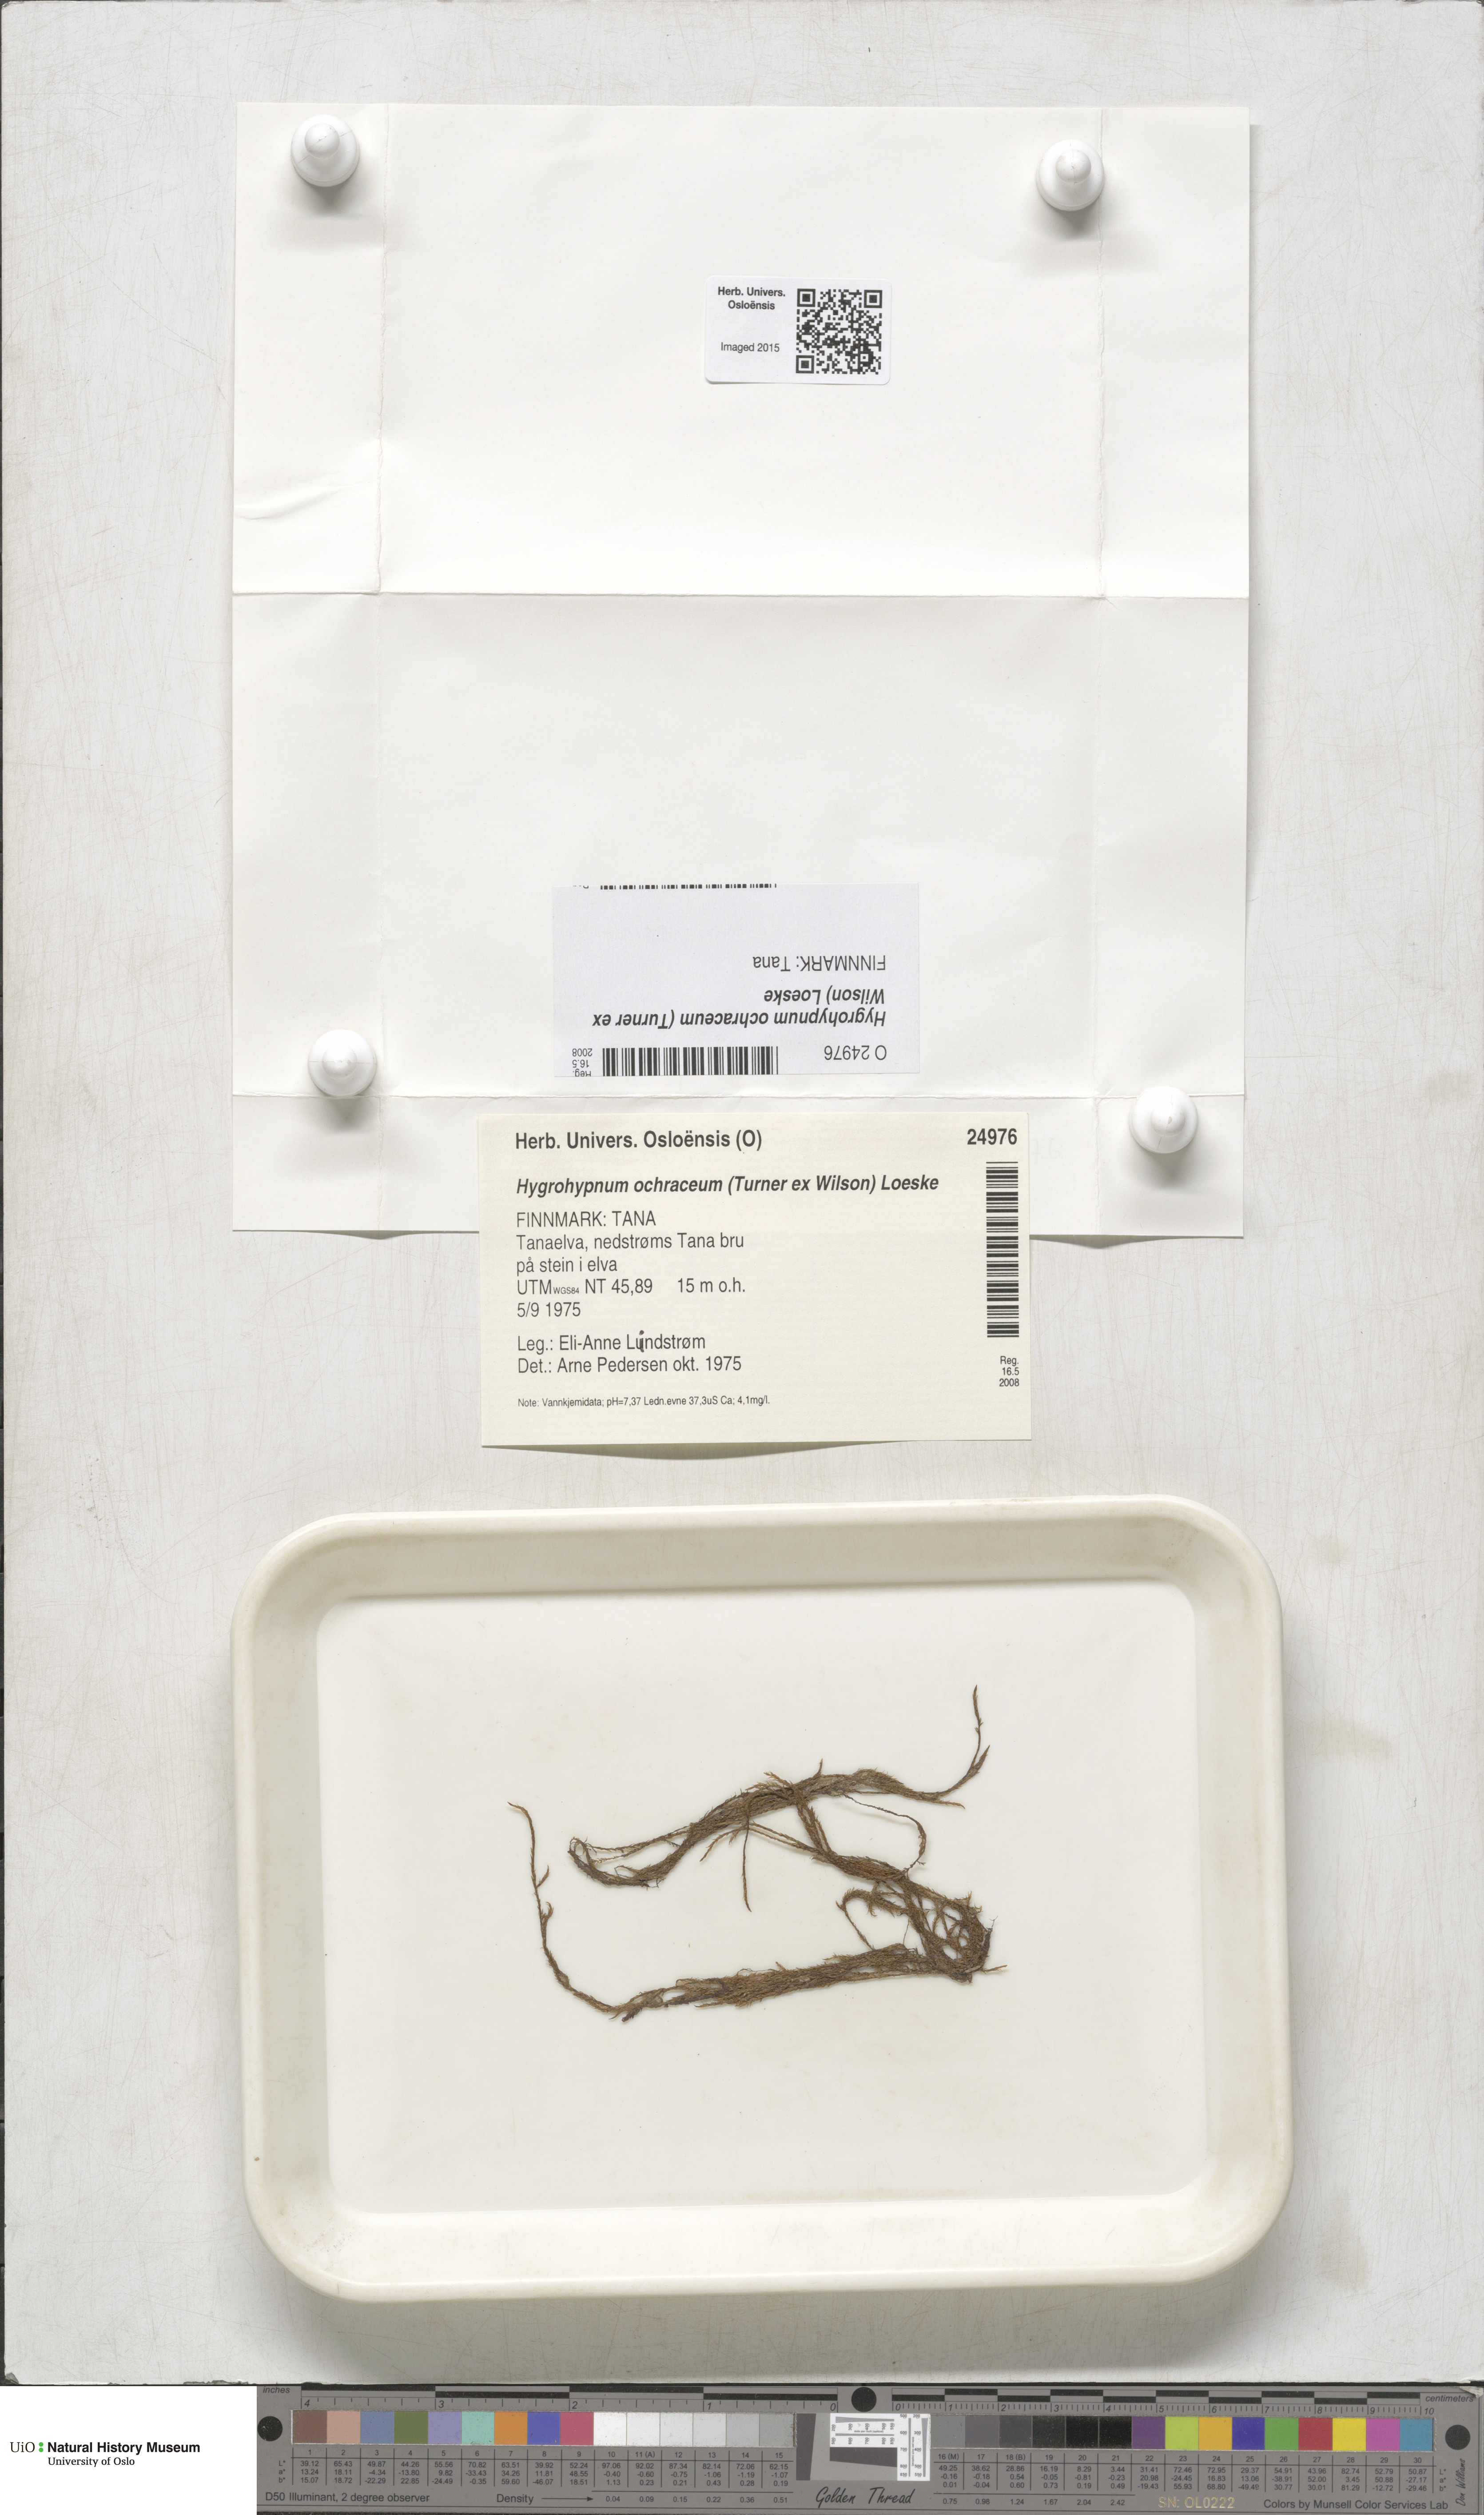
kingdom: Plantae
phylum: Bryophyta
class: Bryopsida
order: Hypnales
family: Scorpidiaceae
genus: Hygrohypnella
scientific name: Hygrohypnella ochracea
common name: Hygrohypnum moss
